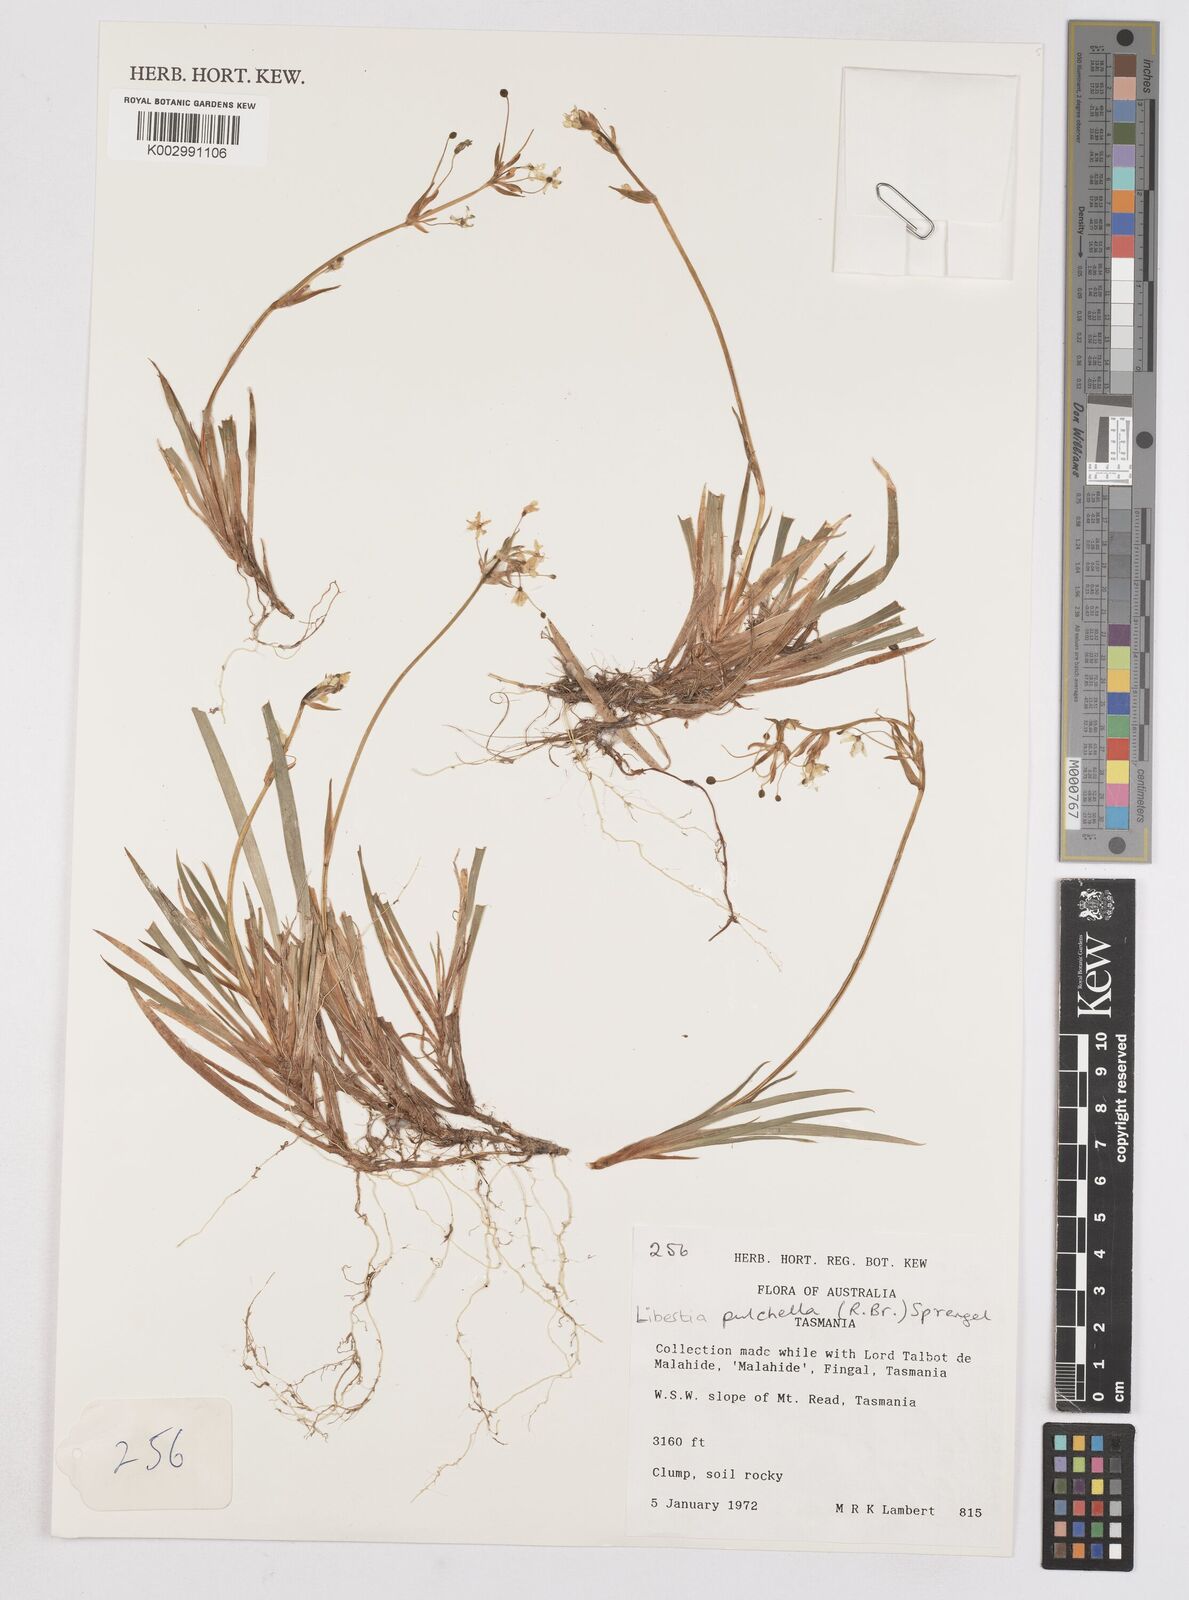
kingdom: Plantae
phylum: Tracheophyta
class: Liliopsida
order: Asparagales
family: Iridaceae
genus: Libertia
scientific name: Libertia pulchella
